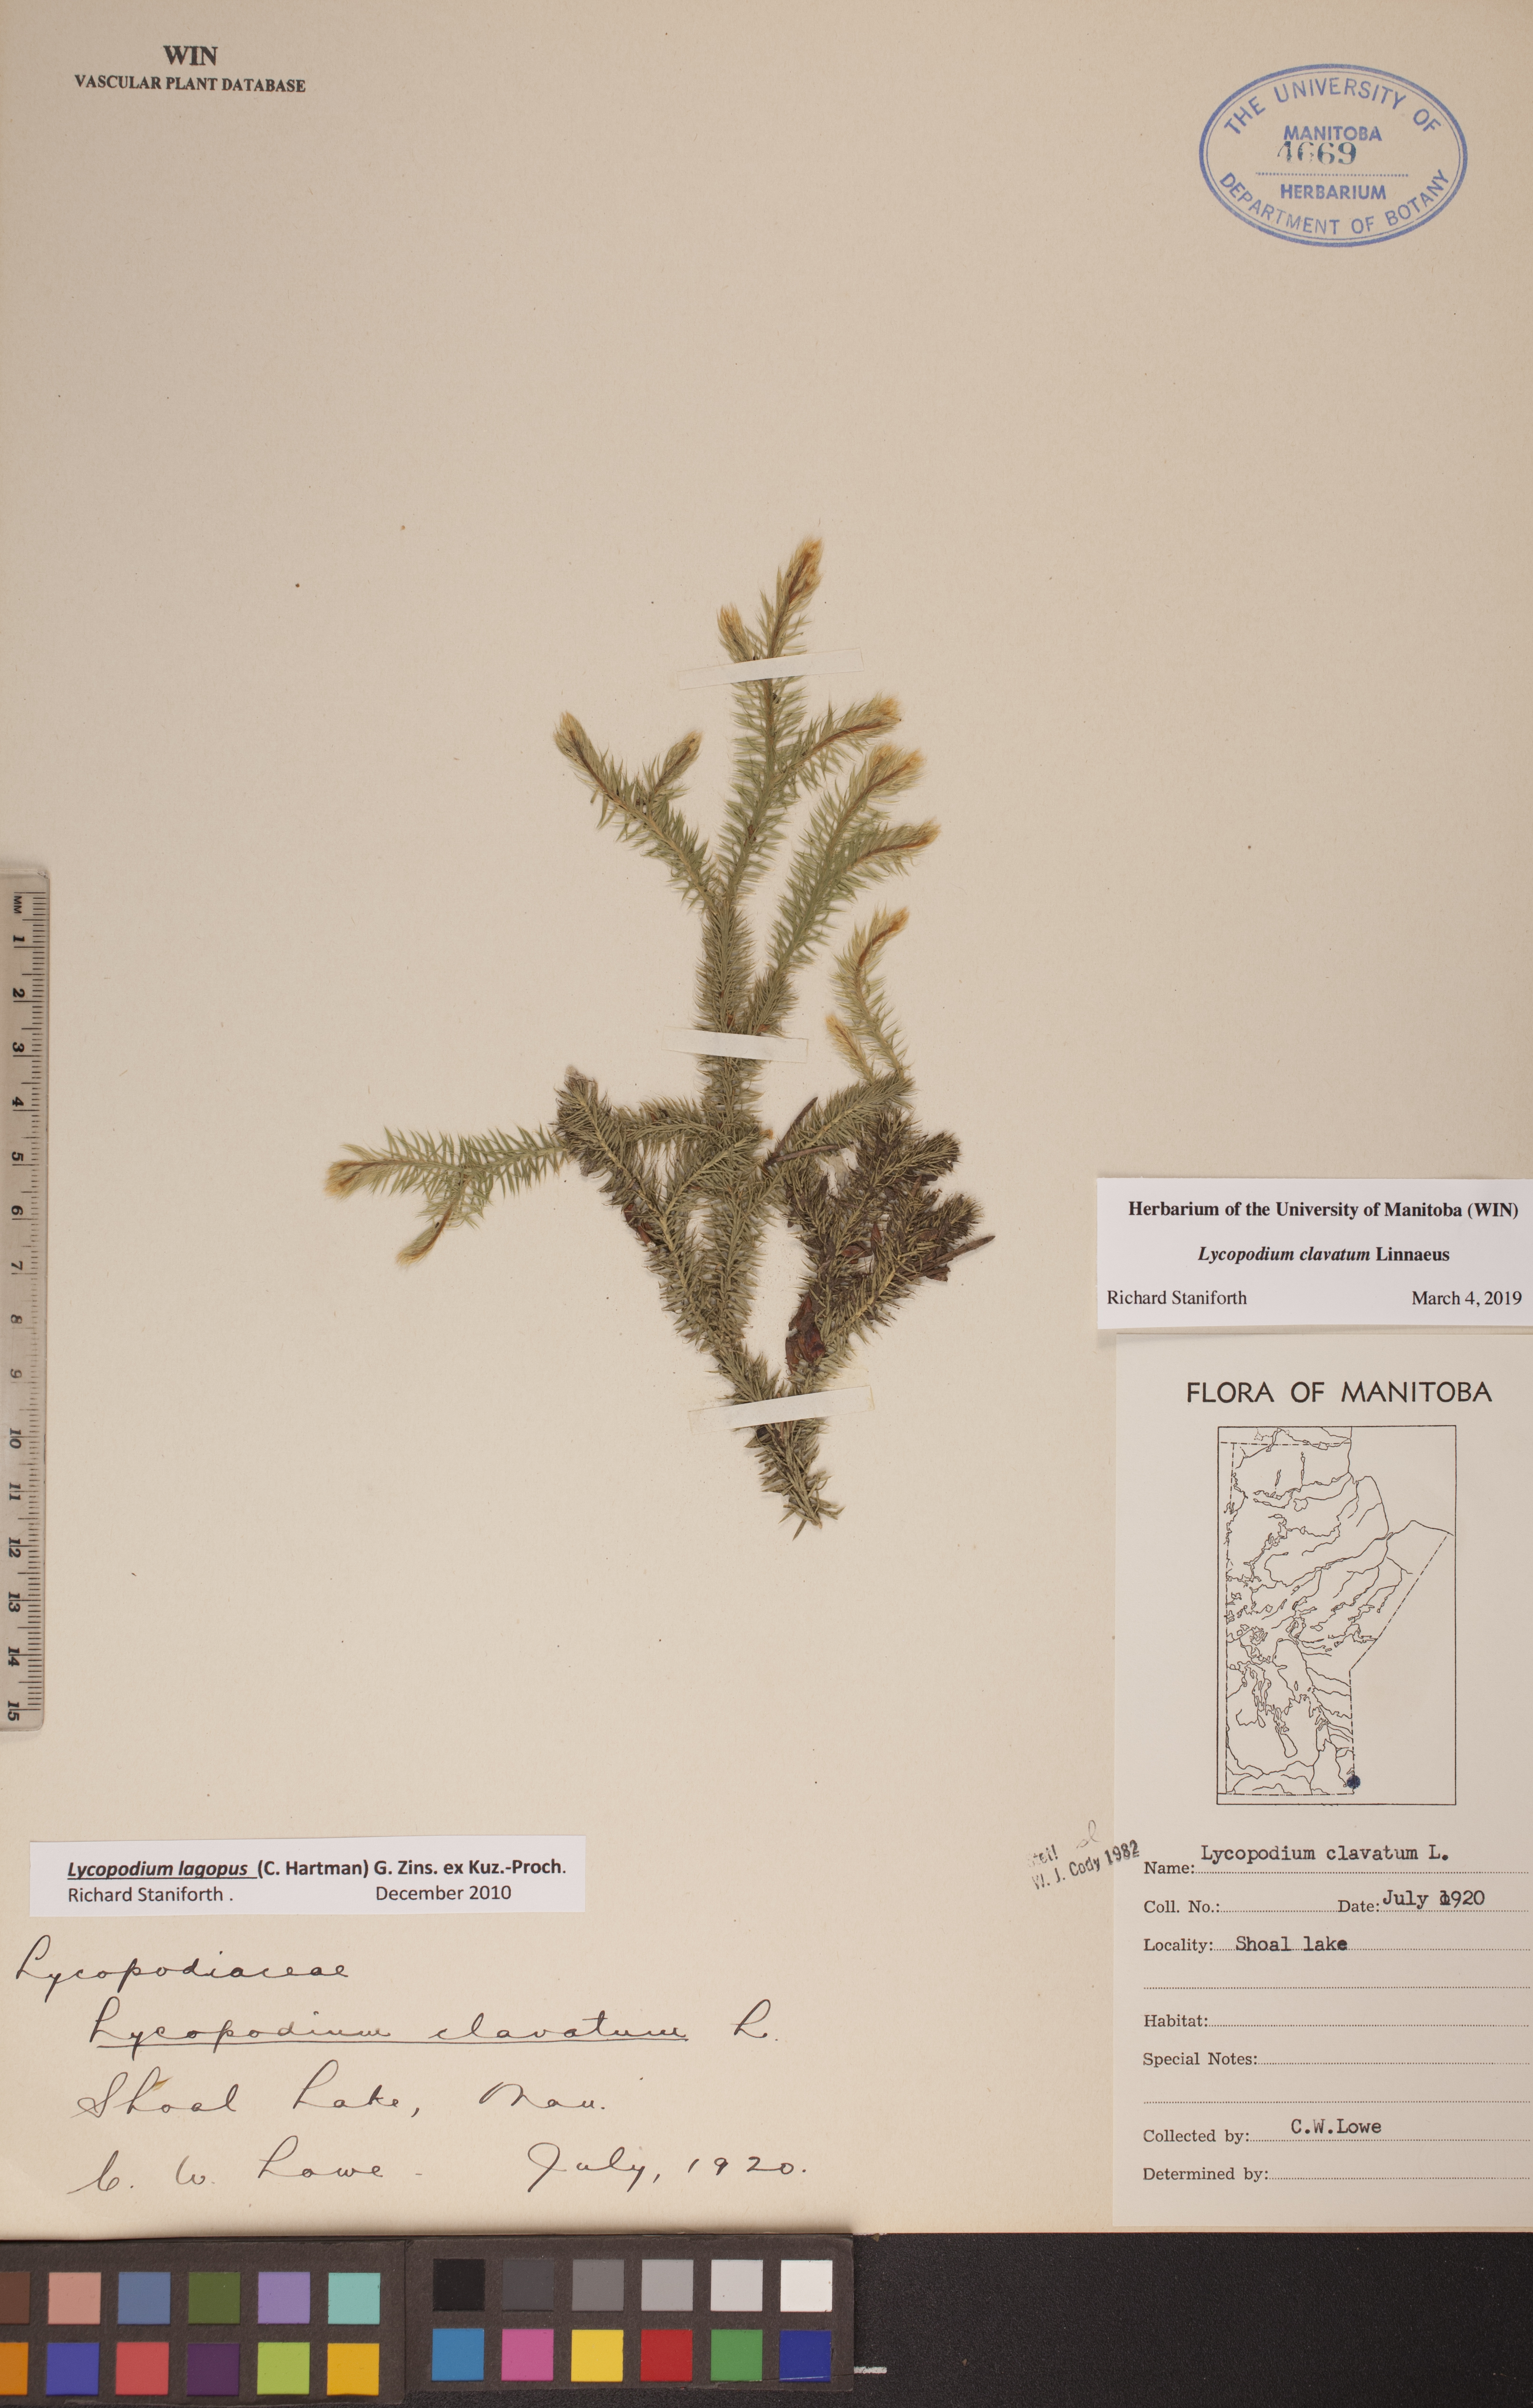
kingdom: Plantae
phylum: Tracheophyta
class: Lycopodiopsida
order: Lycopodiales
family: Lycopodiaceae
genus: Lycopodium
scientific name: Lycopodium clavatum
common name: Stag's-horn clubmoss
